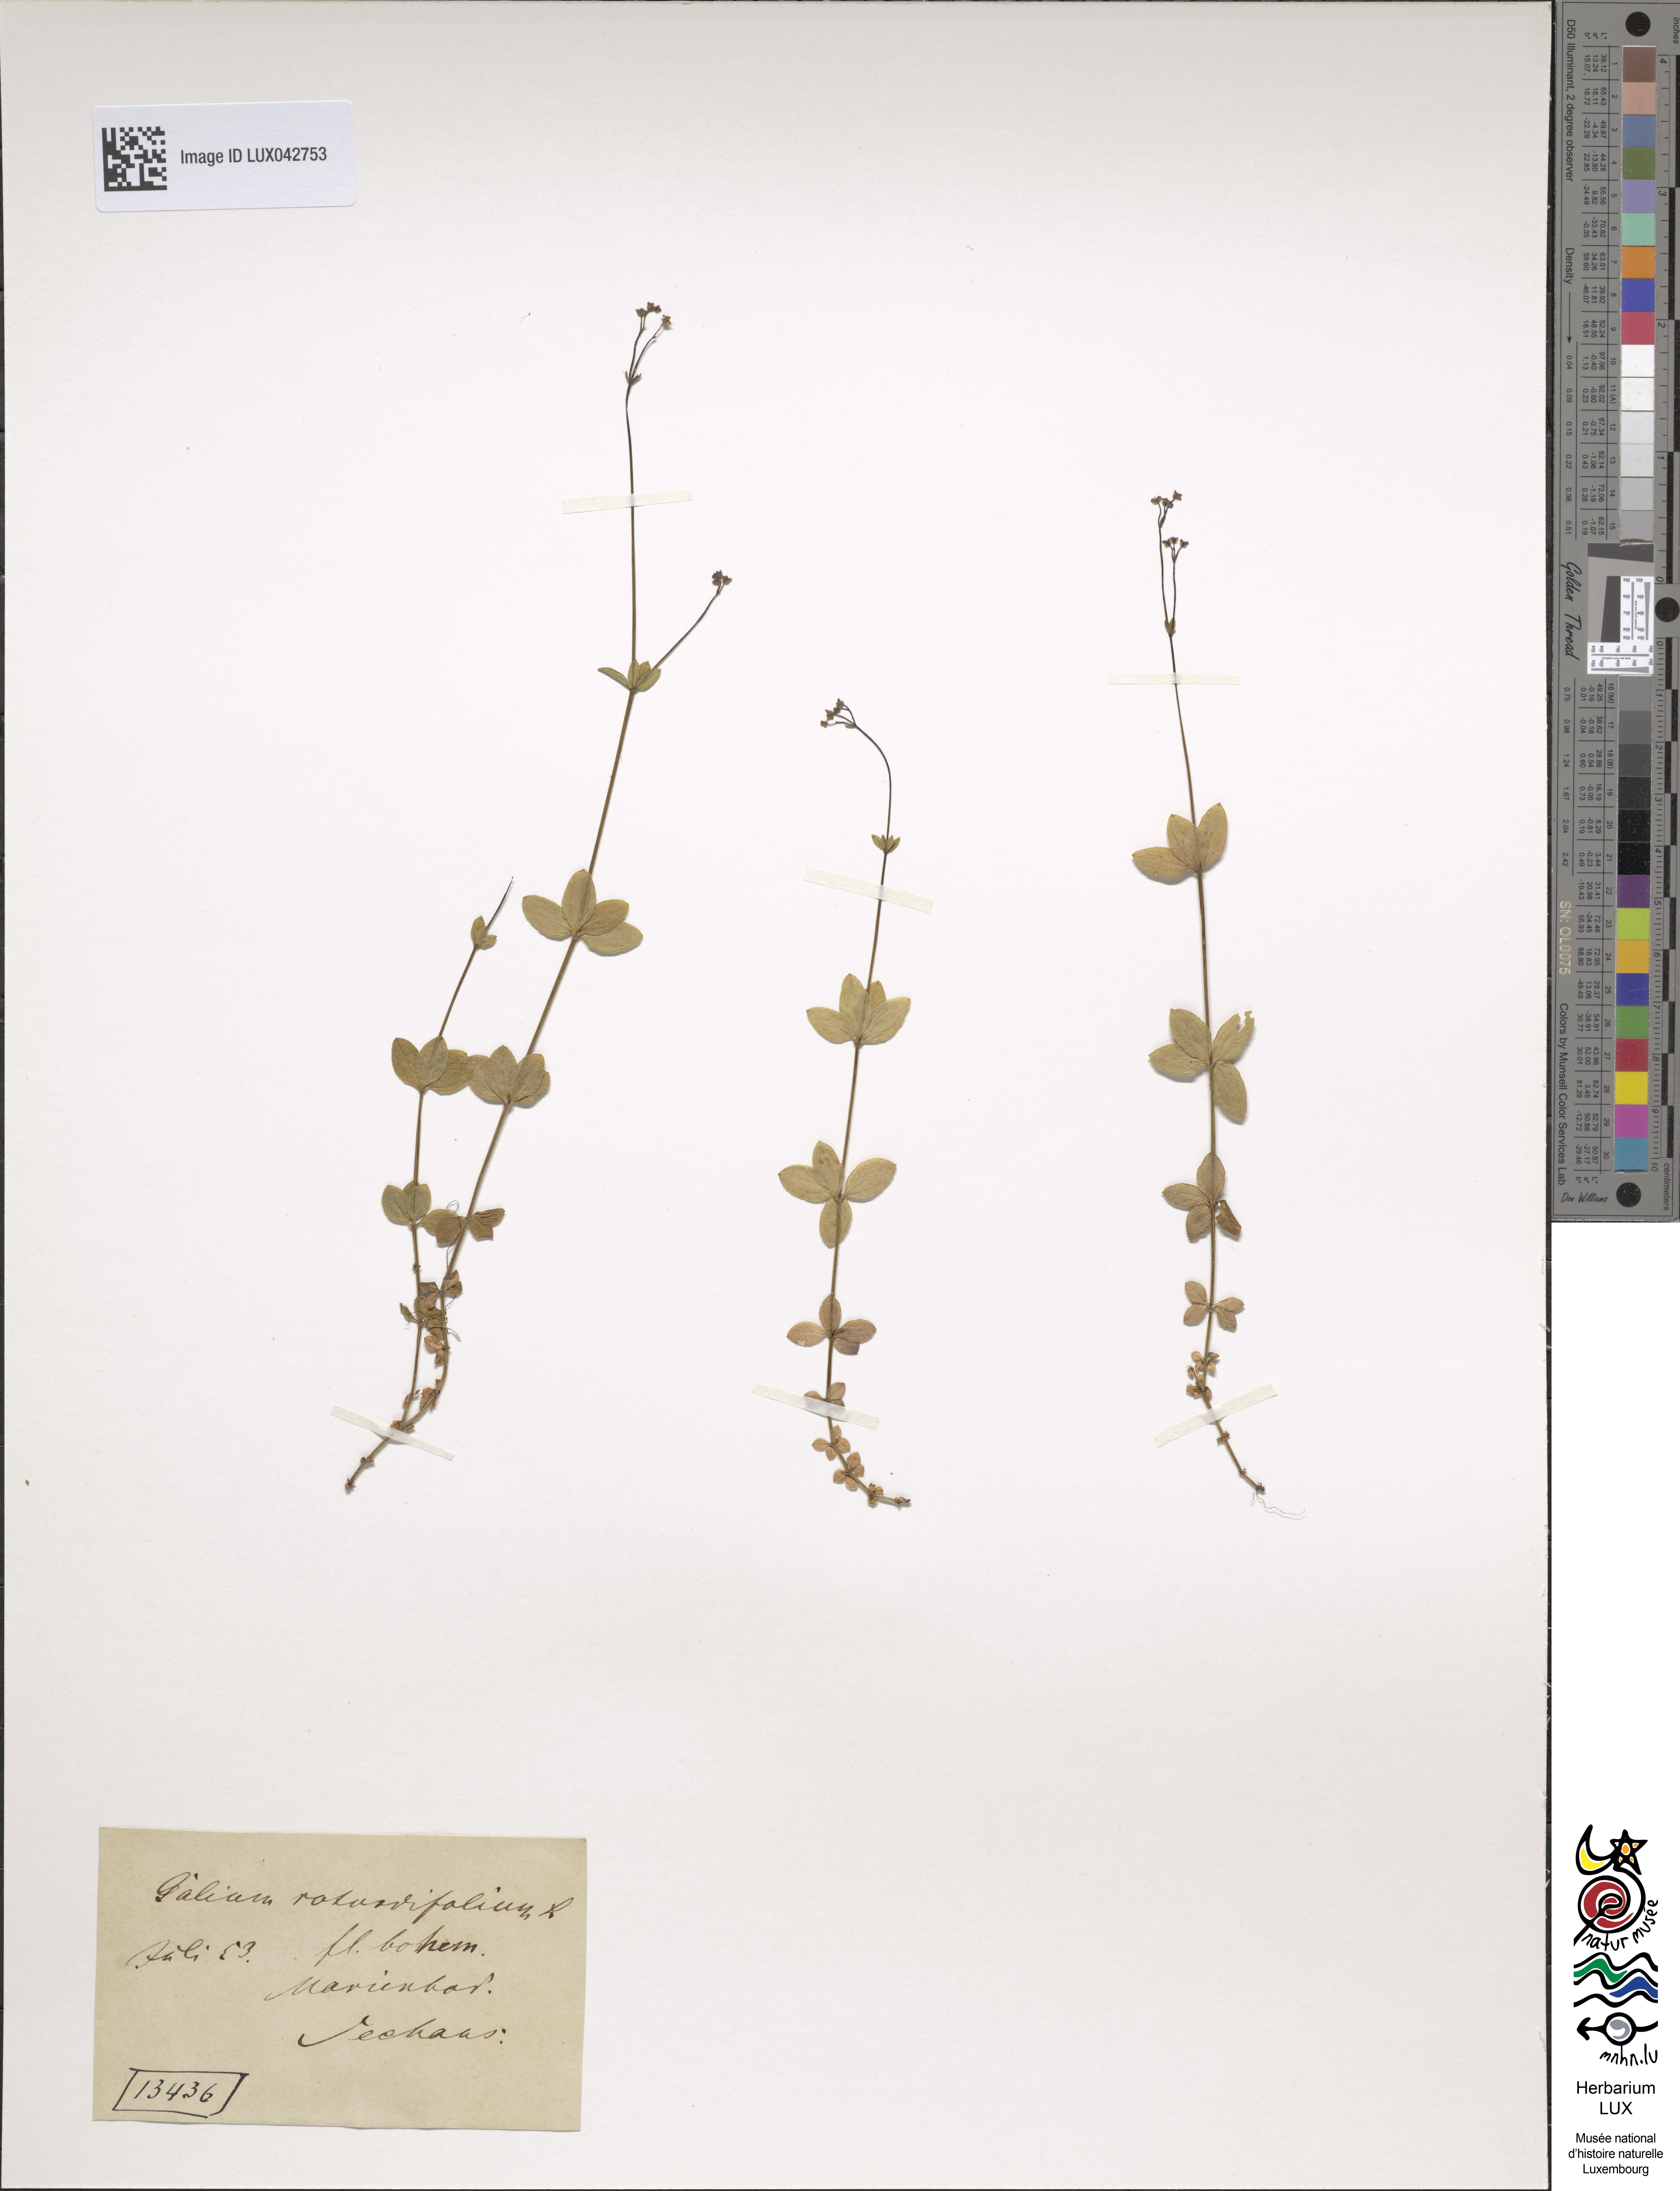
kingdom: Plantae
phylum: Tracheophyta
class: Magnoliopsida
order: Gentianales
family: Rubiaceae
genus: Galium
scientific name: Galium rotundifolium
